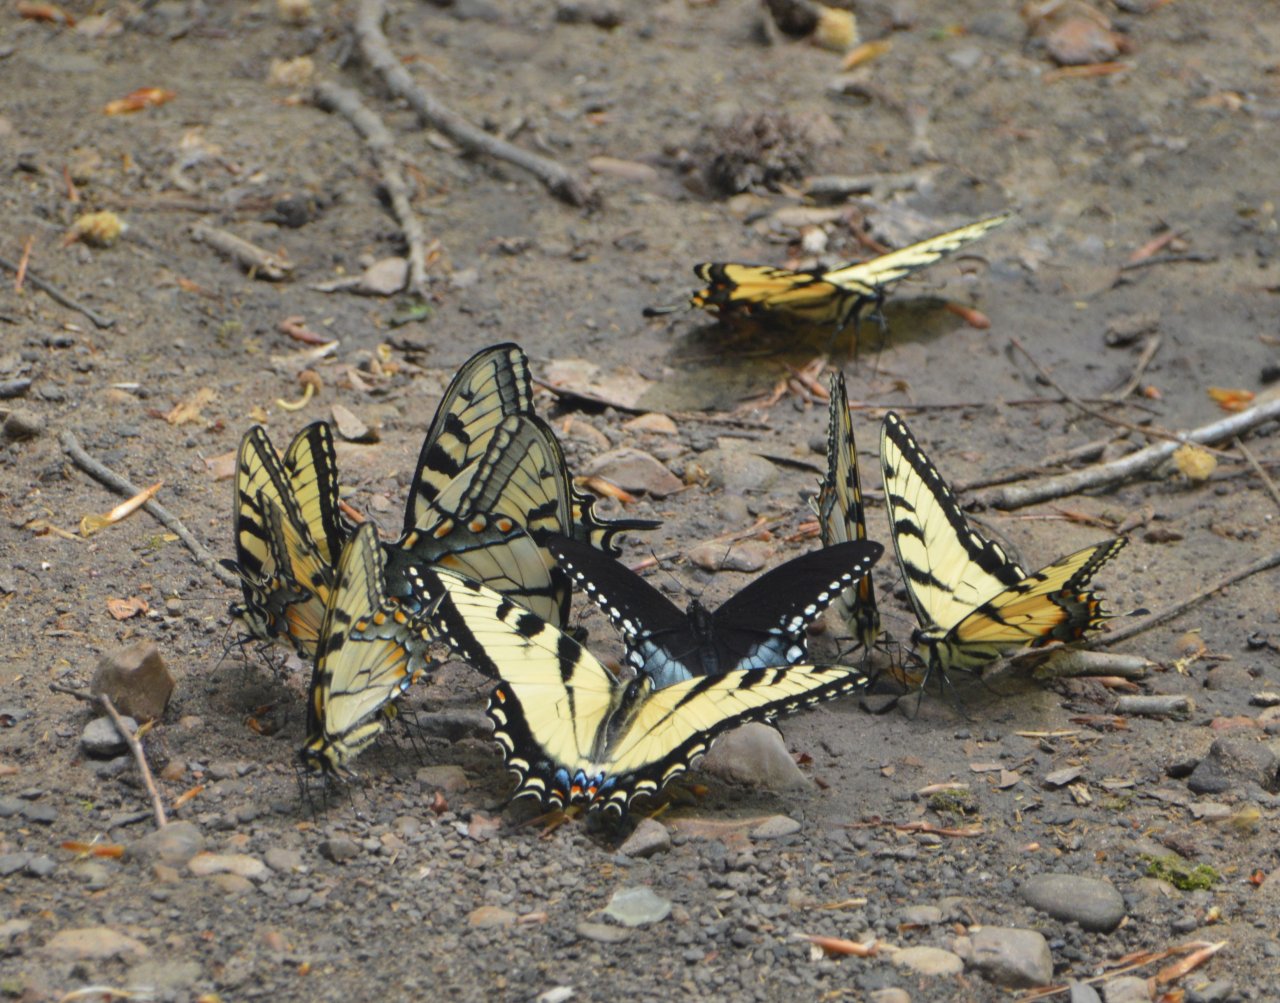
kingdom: Animalia
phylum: Arthropoda
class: Insecta
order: Lepidoptera
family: Papilionidae
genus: Pterourus
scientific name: Pterourus glaucus
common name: Eastern Tiger Swallowtail
